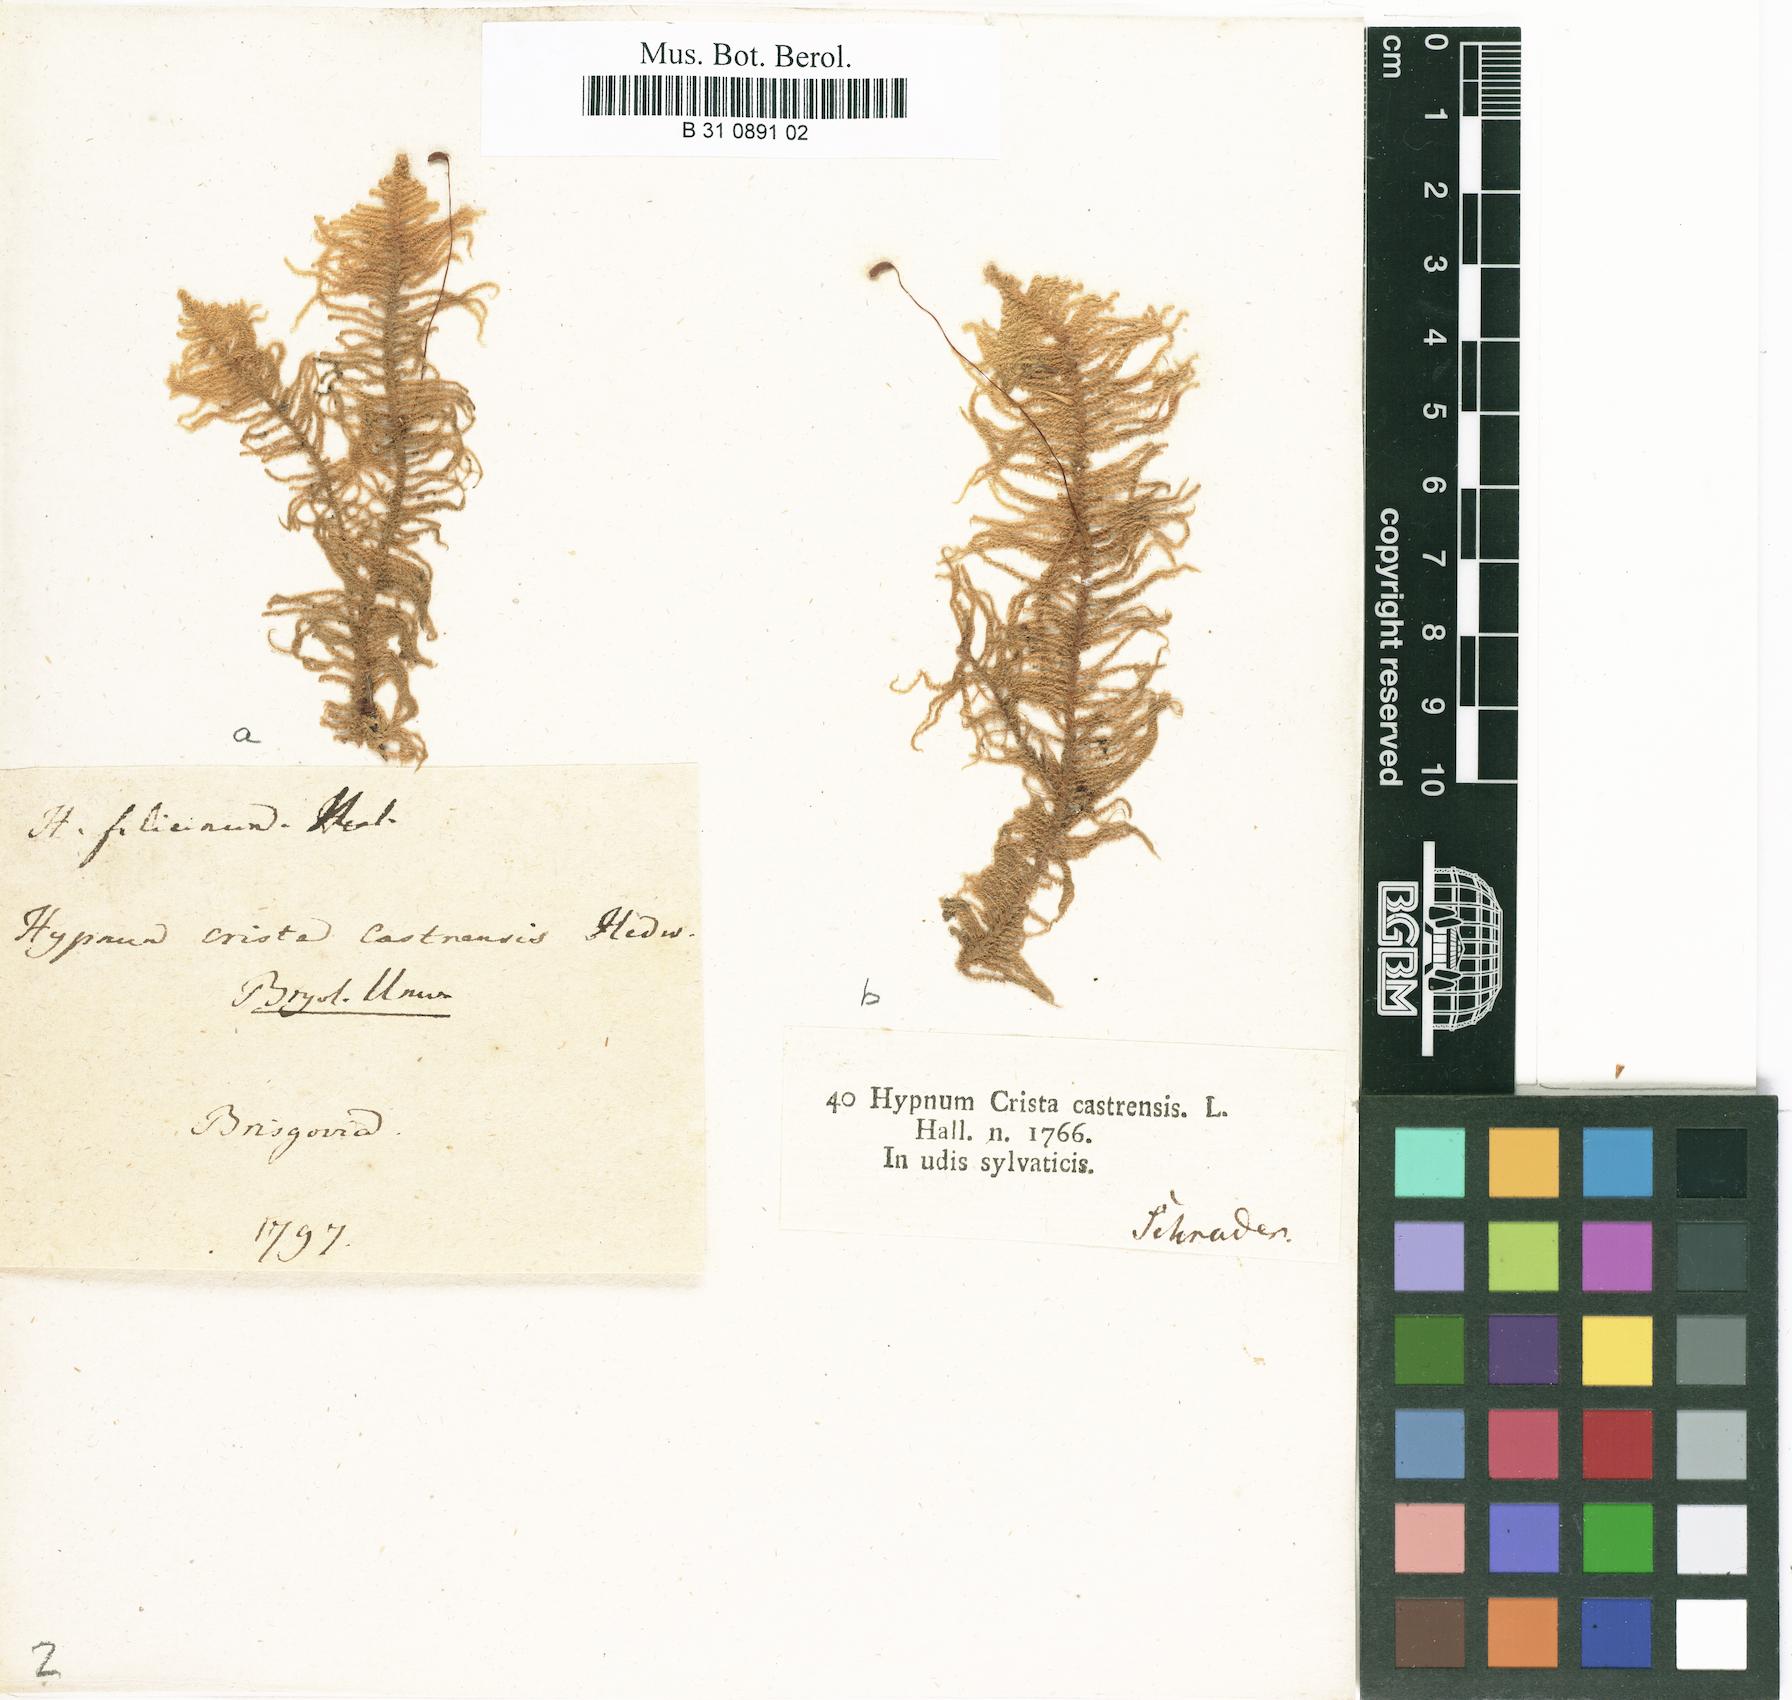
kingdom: Plantae
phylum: Bryophyta
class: Bryopsida
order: Hypnales
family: Pylaisiaceae
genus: Ptilium
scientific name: Ptilium crista-castrensis
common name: Knight's plume moss
